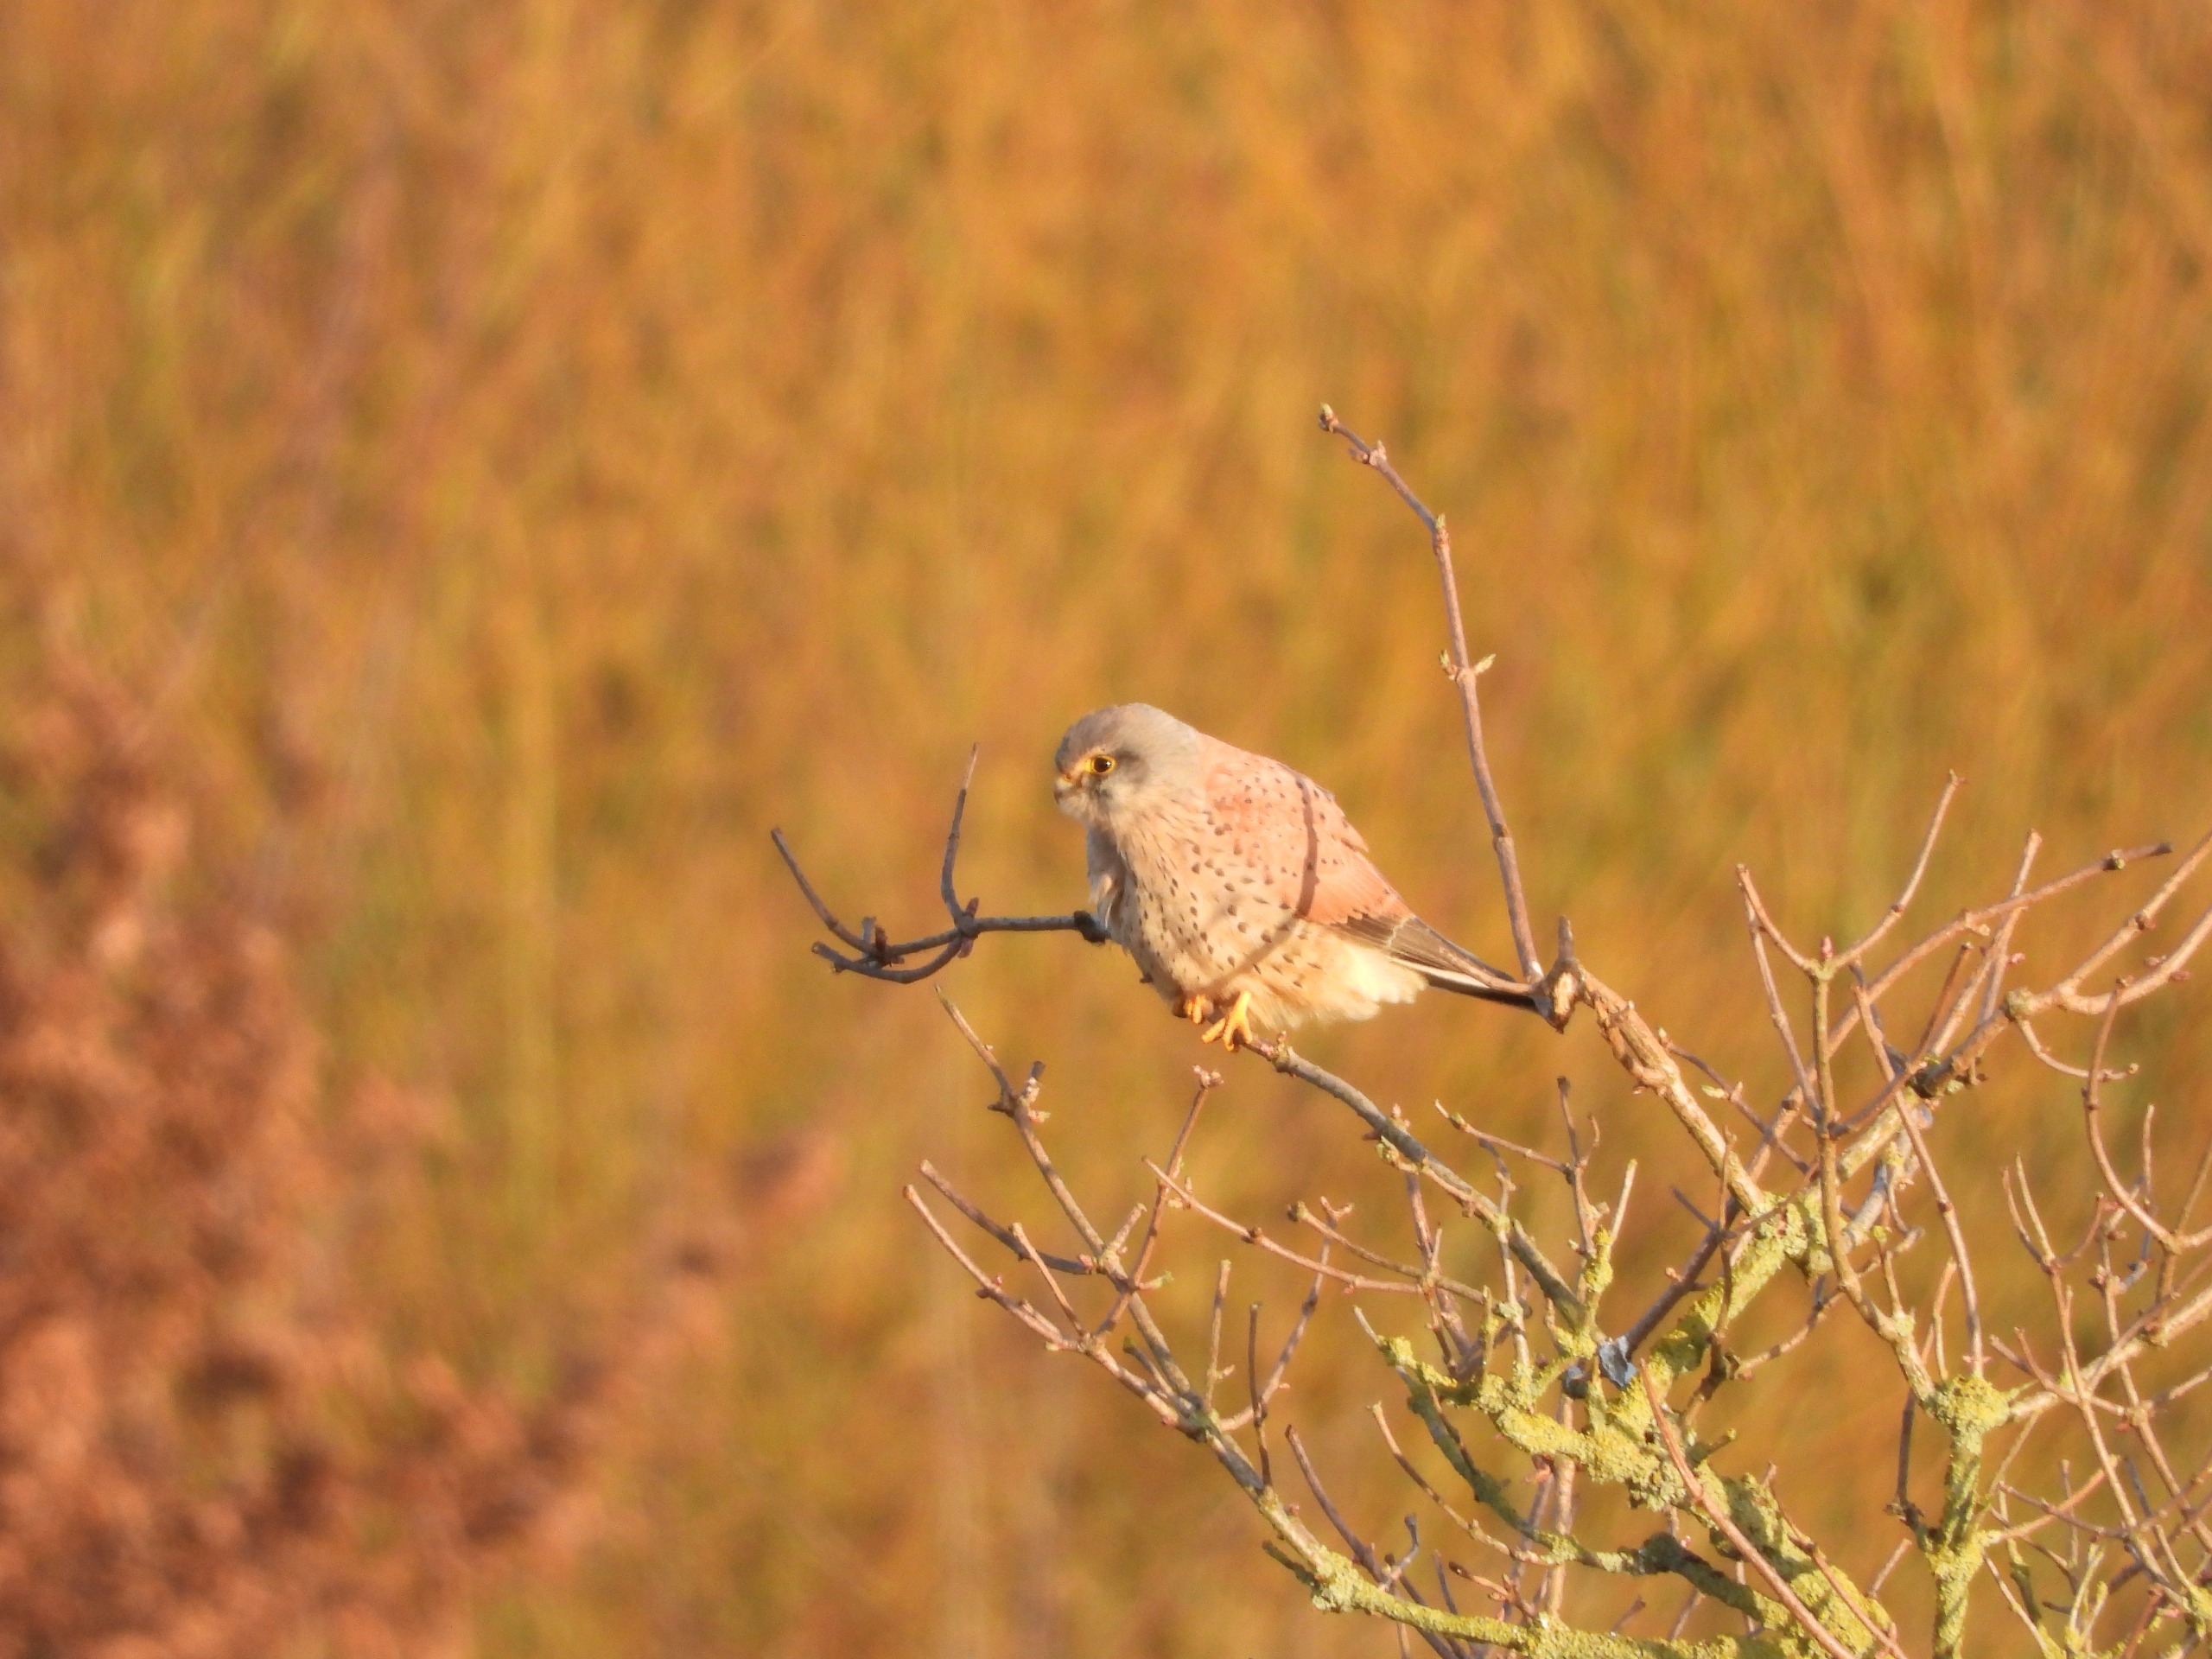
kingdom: Animalia
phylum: Chordata
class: Aves
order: Falconiformes
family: Falconidae
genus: Falco
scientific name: Falco tinnunculus
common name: Tårnfalk
